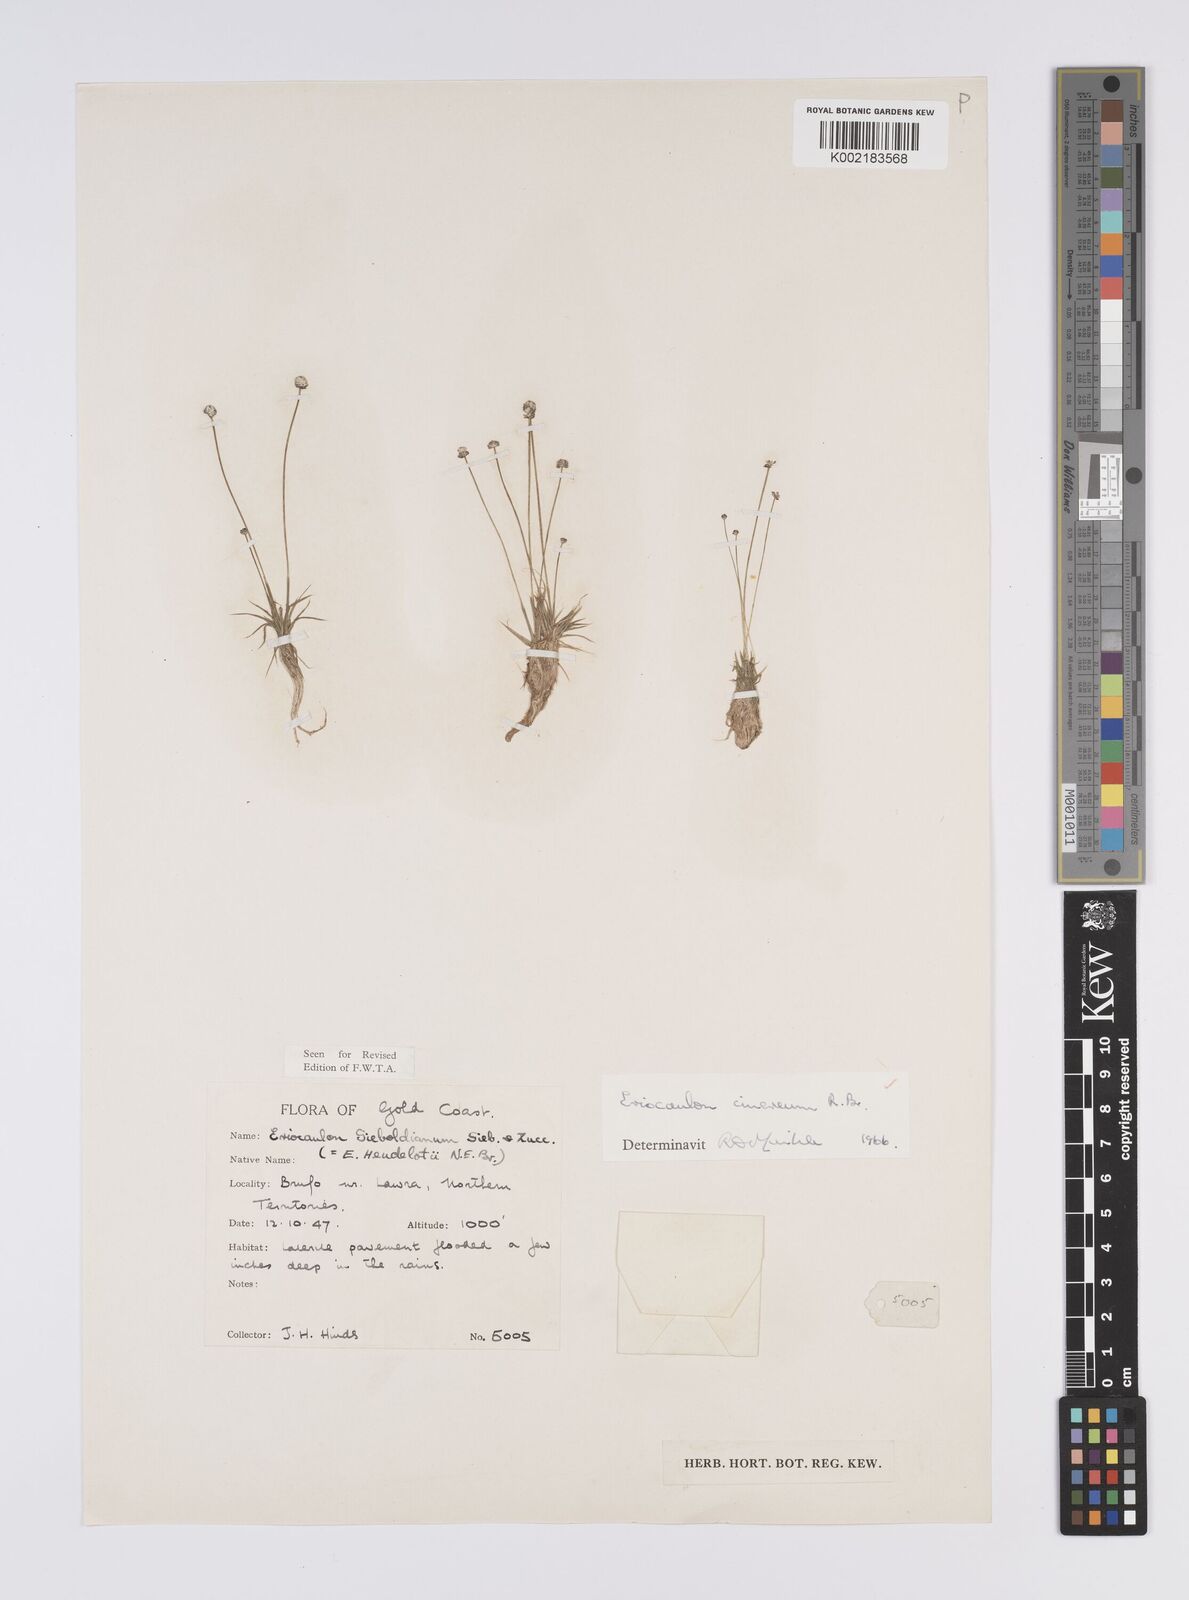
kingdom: Plantae
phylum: Tracheophyta
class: Liliopsida
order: Poales
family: Eriocaulaceae
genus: Eriocaulon
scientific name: Eriocaulon cinereum
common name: Ashy pipewort
